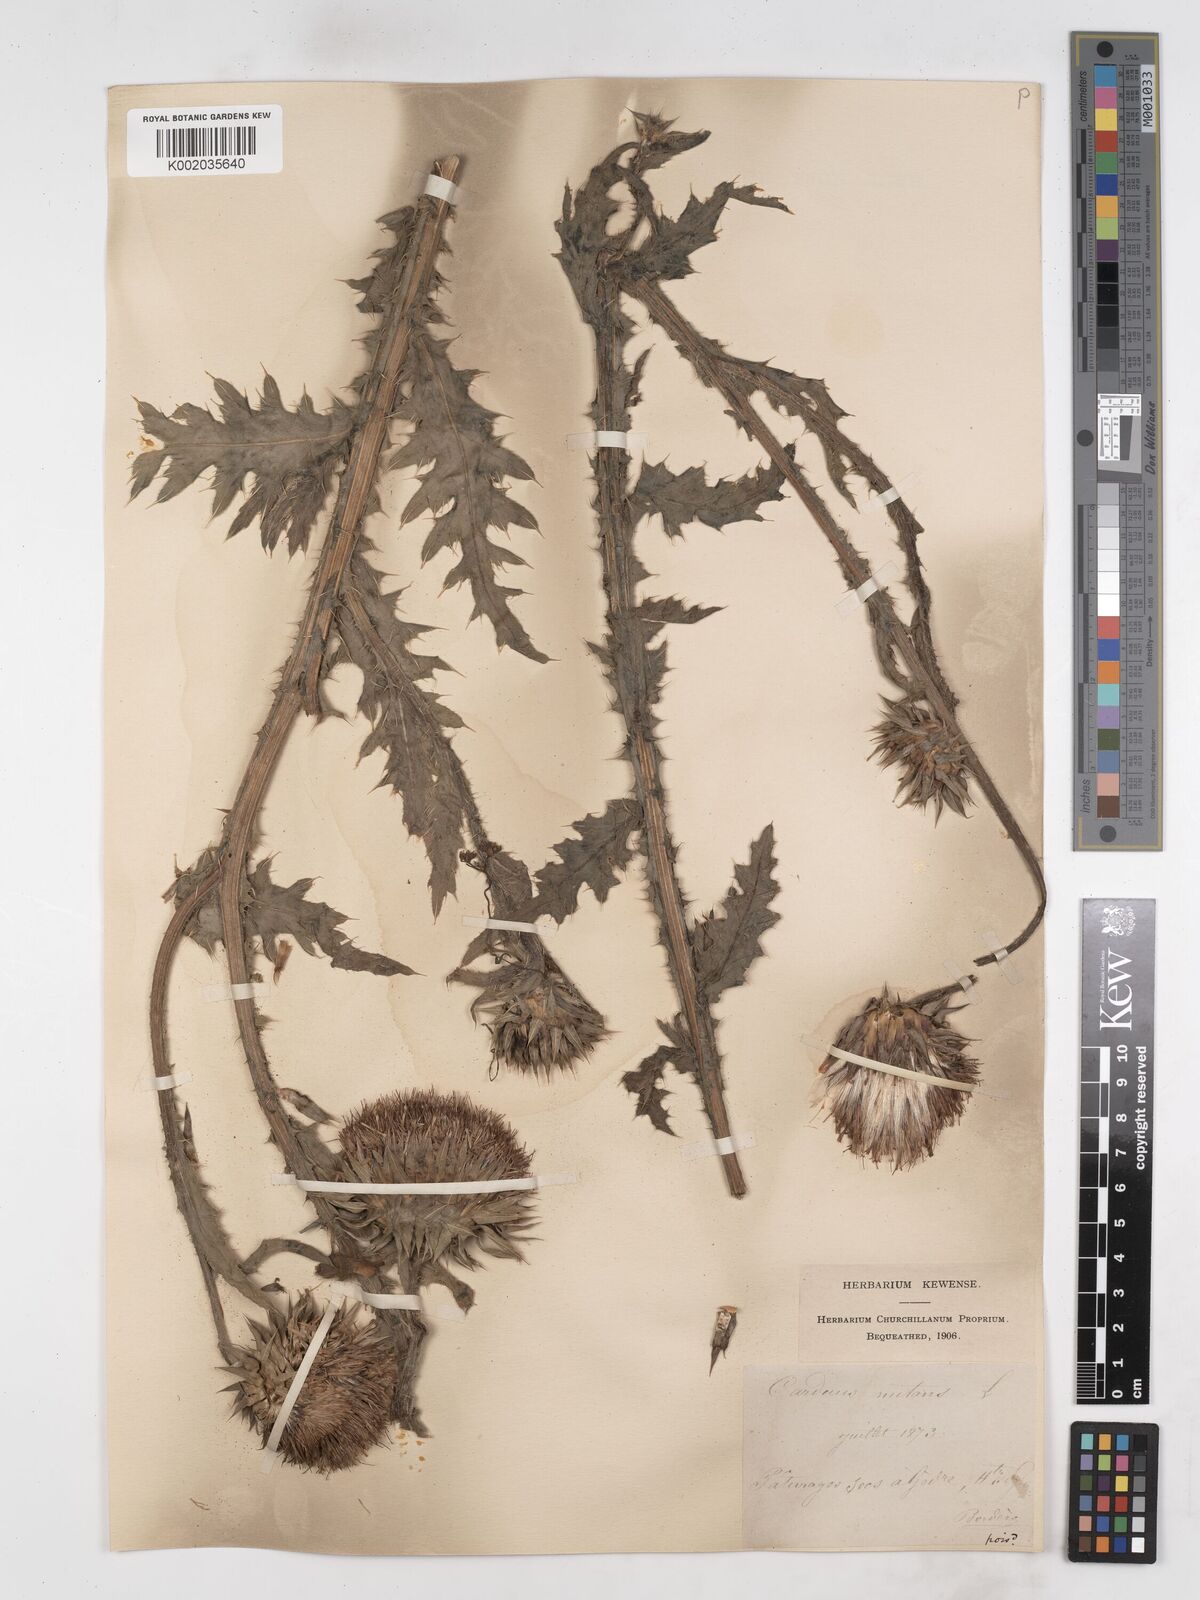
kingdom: Plantae
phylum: Tracheophyta
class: Magnoliopsida
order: Asterales
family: Asteraceae
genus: Carduus
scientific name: Carduus nutans
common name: Musk thistle
